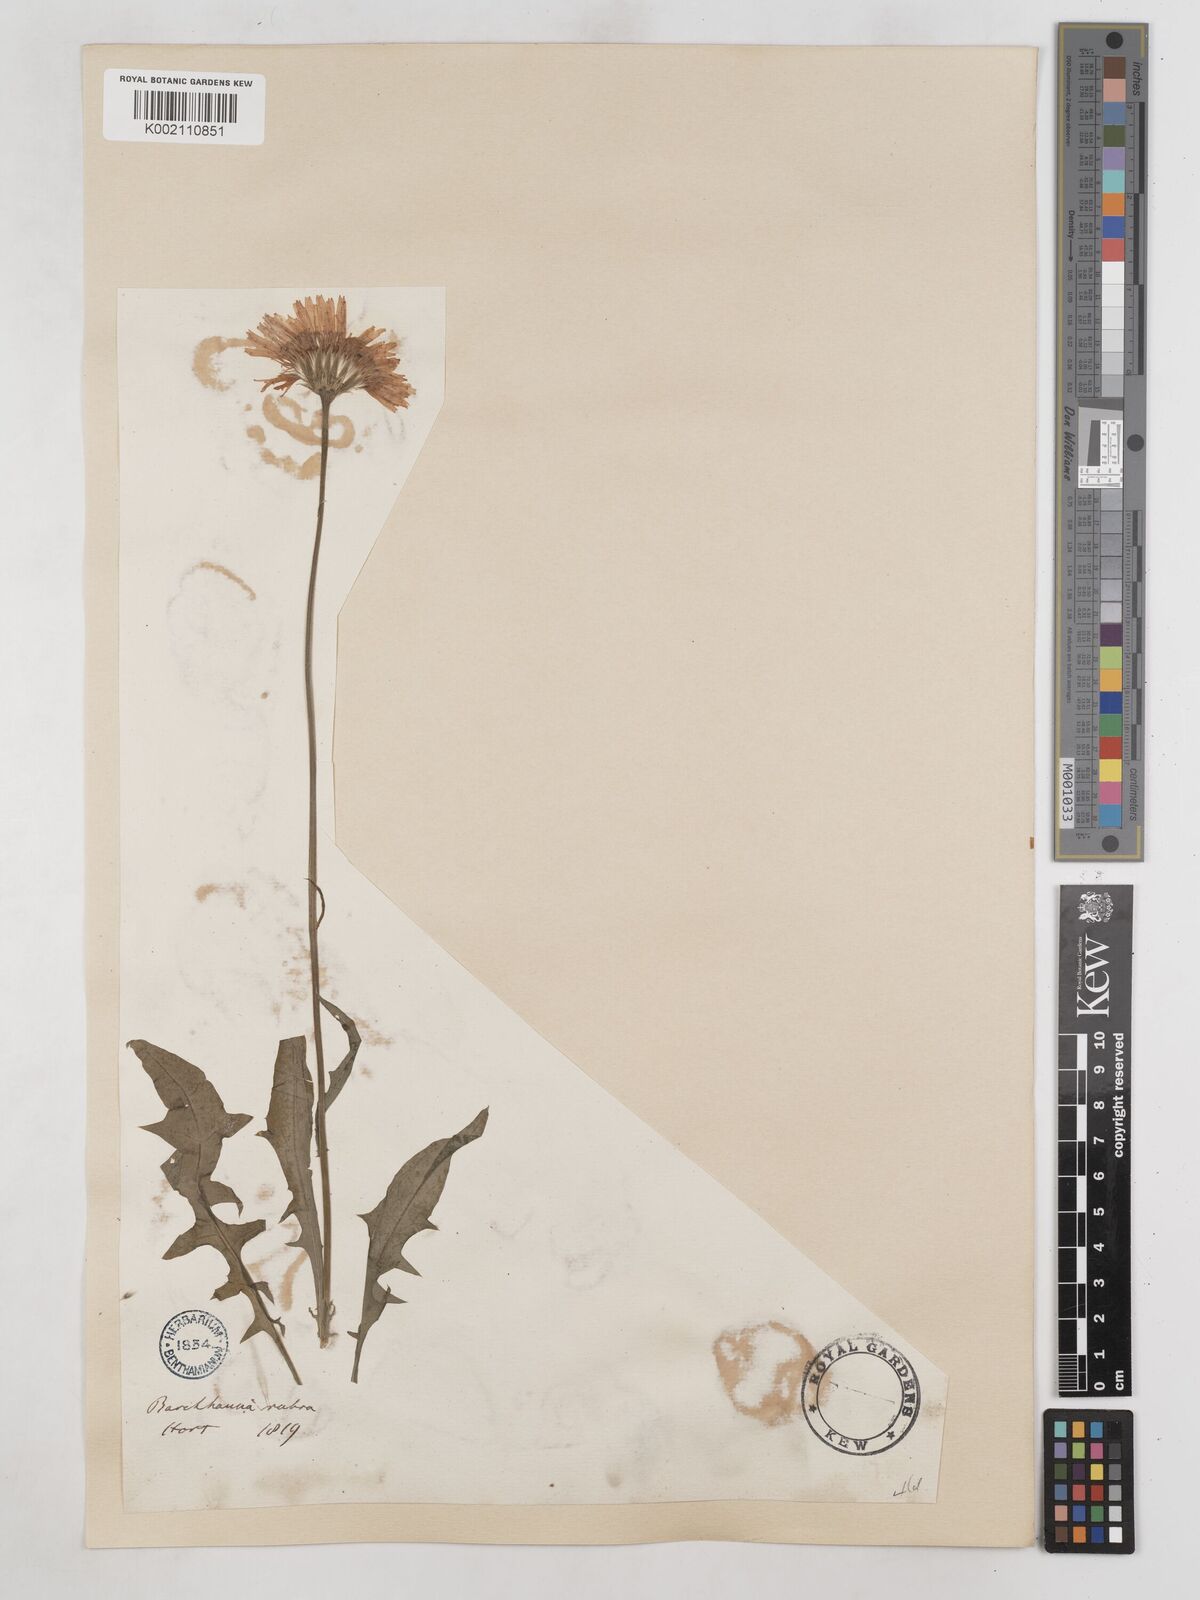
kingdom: Plantae
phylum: Tracheophyta
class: Magnoliopsida
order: Asterales
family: Asteraceae
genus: Crepis
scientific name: Crepis rubra
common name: Pink hawk's-beard
